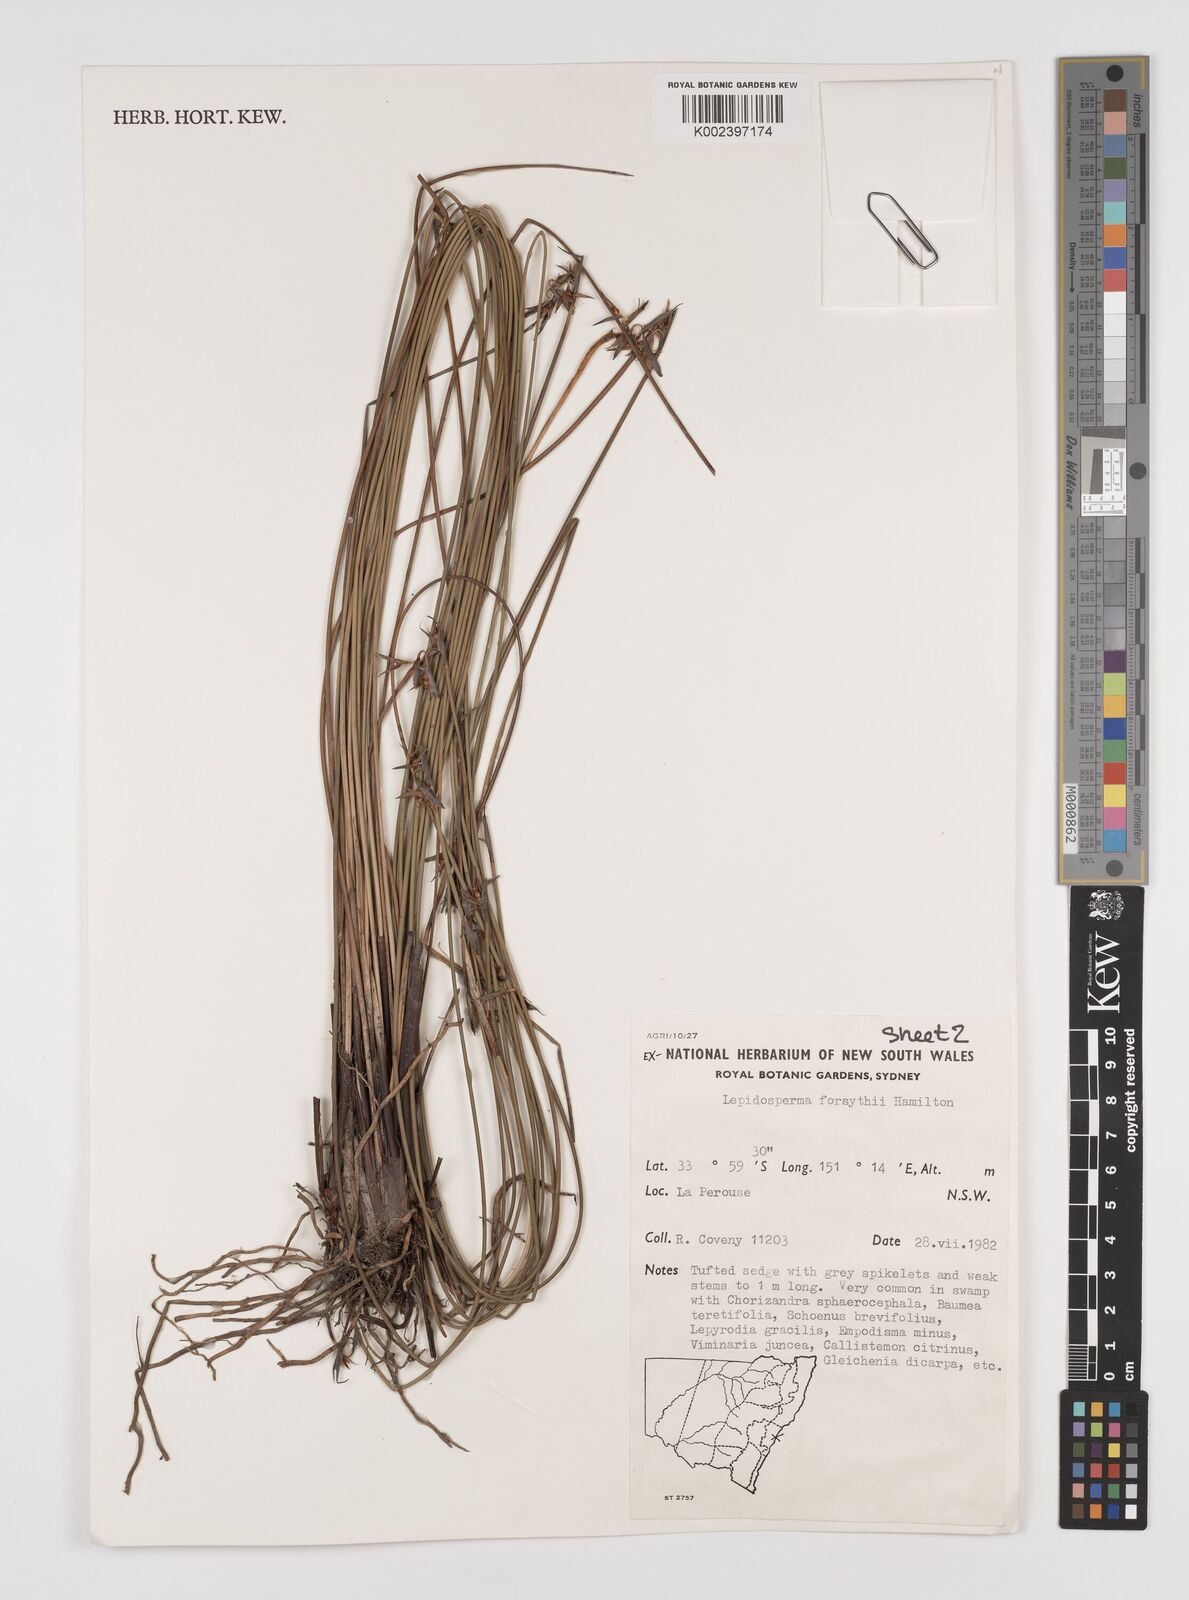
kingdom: Plantae
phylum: Tracheophyta
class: Liliopsida
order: Poales
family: Cyperaceae
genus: Lepidosperma
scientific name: Lepidosperma forsythii
